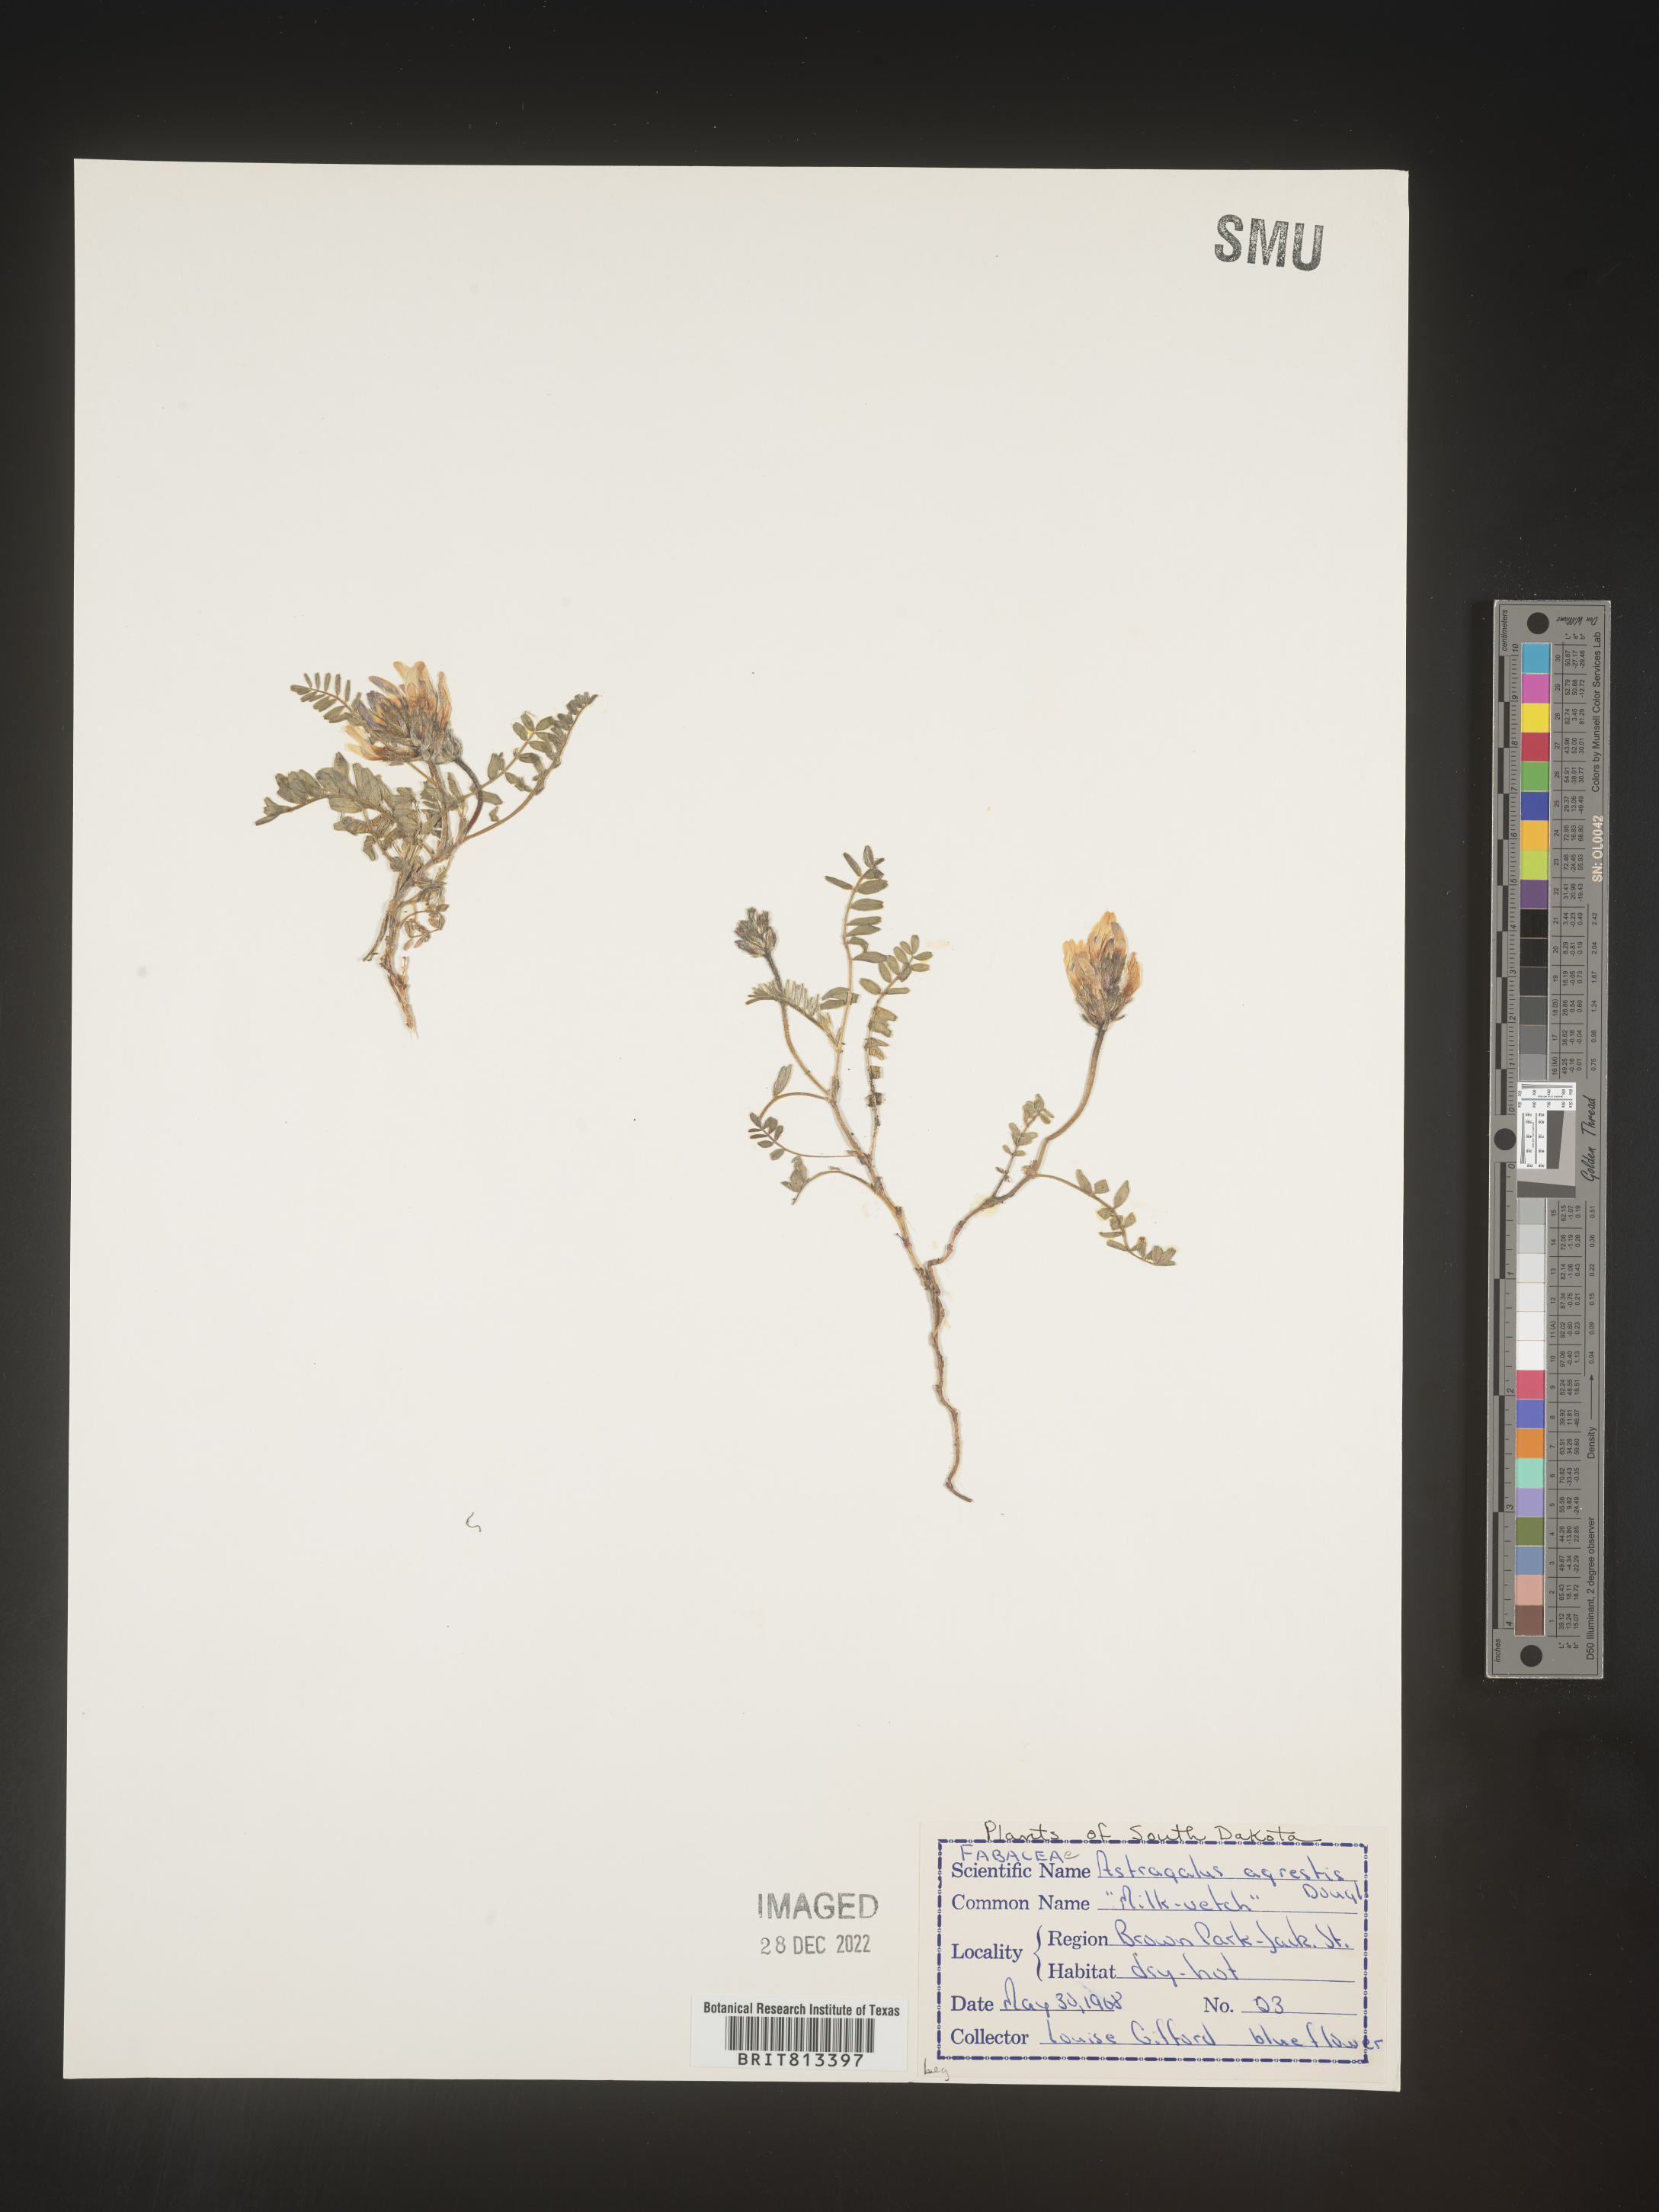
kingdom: Plantae
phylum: Tracheophyta
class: Magnoliopsida
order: Fabales
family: Fabaceae
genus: Astragalus
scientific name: Astragalus agrestis
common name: Field milk-vetch
